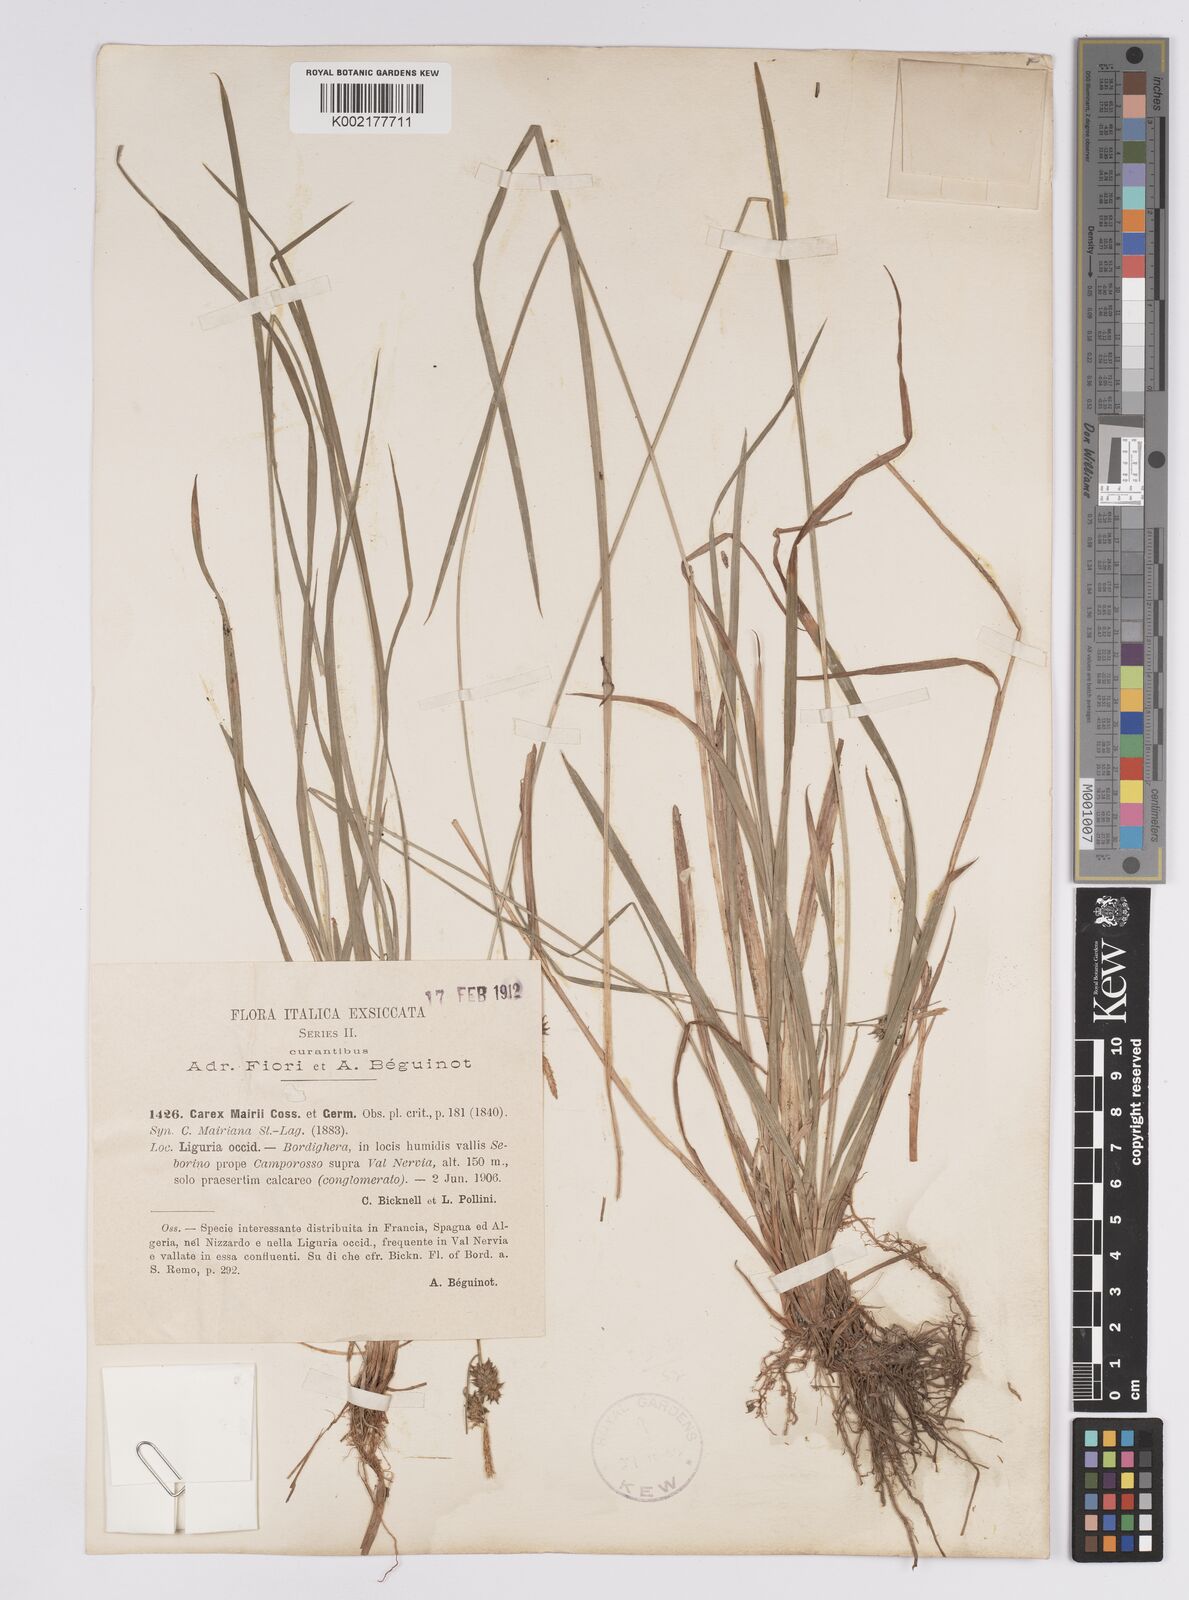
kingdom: Plantae
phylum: Tracheophyta
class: Liliopsida
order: Poales
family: Cyperaceae
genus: Carex
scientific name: Carex mairei
